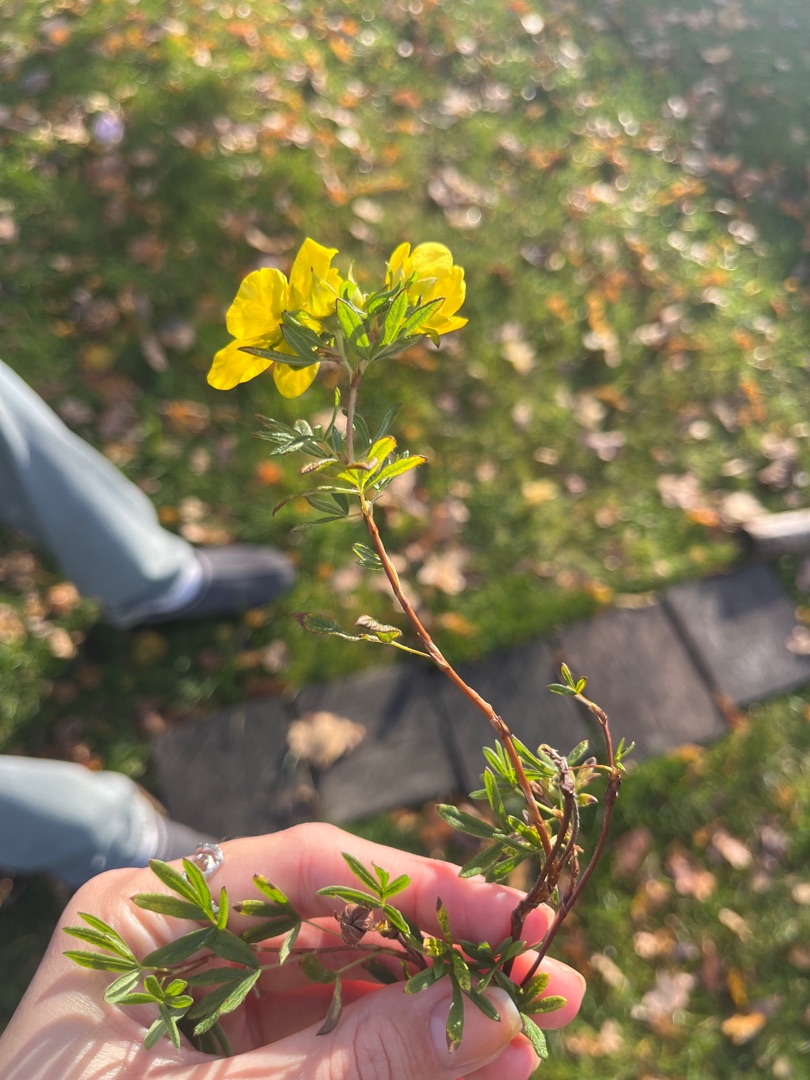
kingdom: Plantae
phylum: Tracheophyta
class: Magnoliopsida
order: Rosales
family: Rosaceae
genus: Dasiphora
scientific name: Dasiphora fruticosa
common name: Buskpotentil
